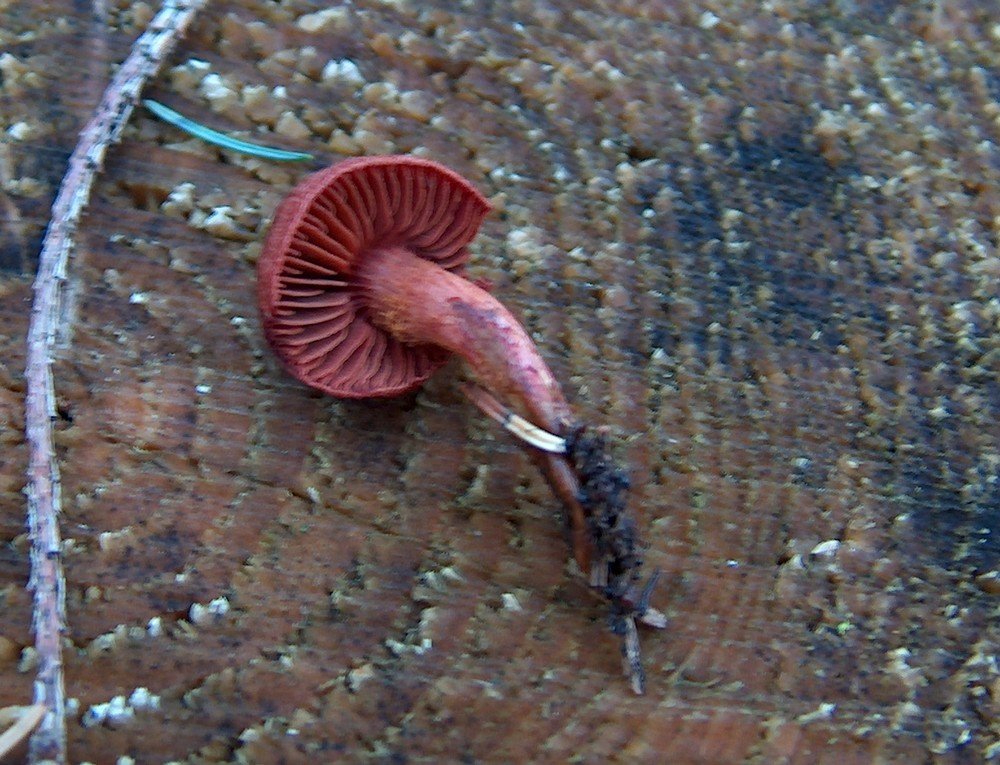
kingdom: Fungi
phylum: Basidiomycota
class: Agaricomycetes
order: Agaricales
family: Cortinariaceae
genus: Cortinarius
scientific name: Cortinarius sanguineus
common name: blodrød slørhat
